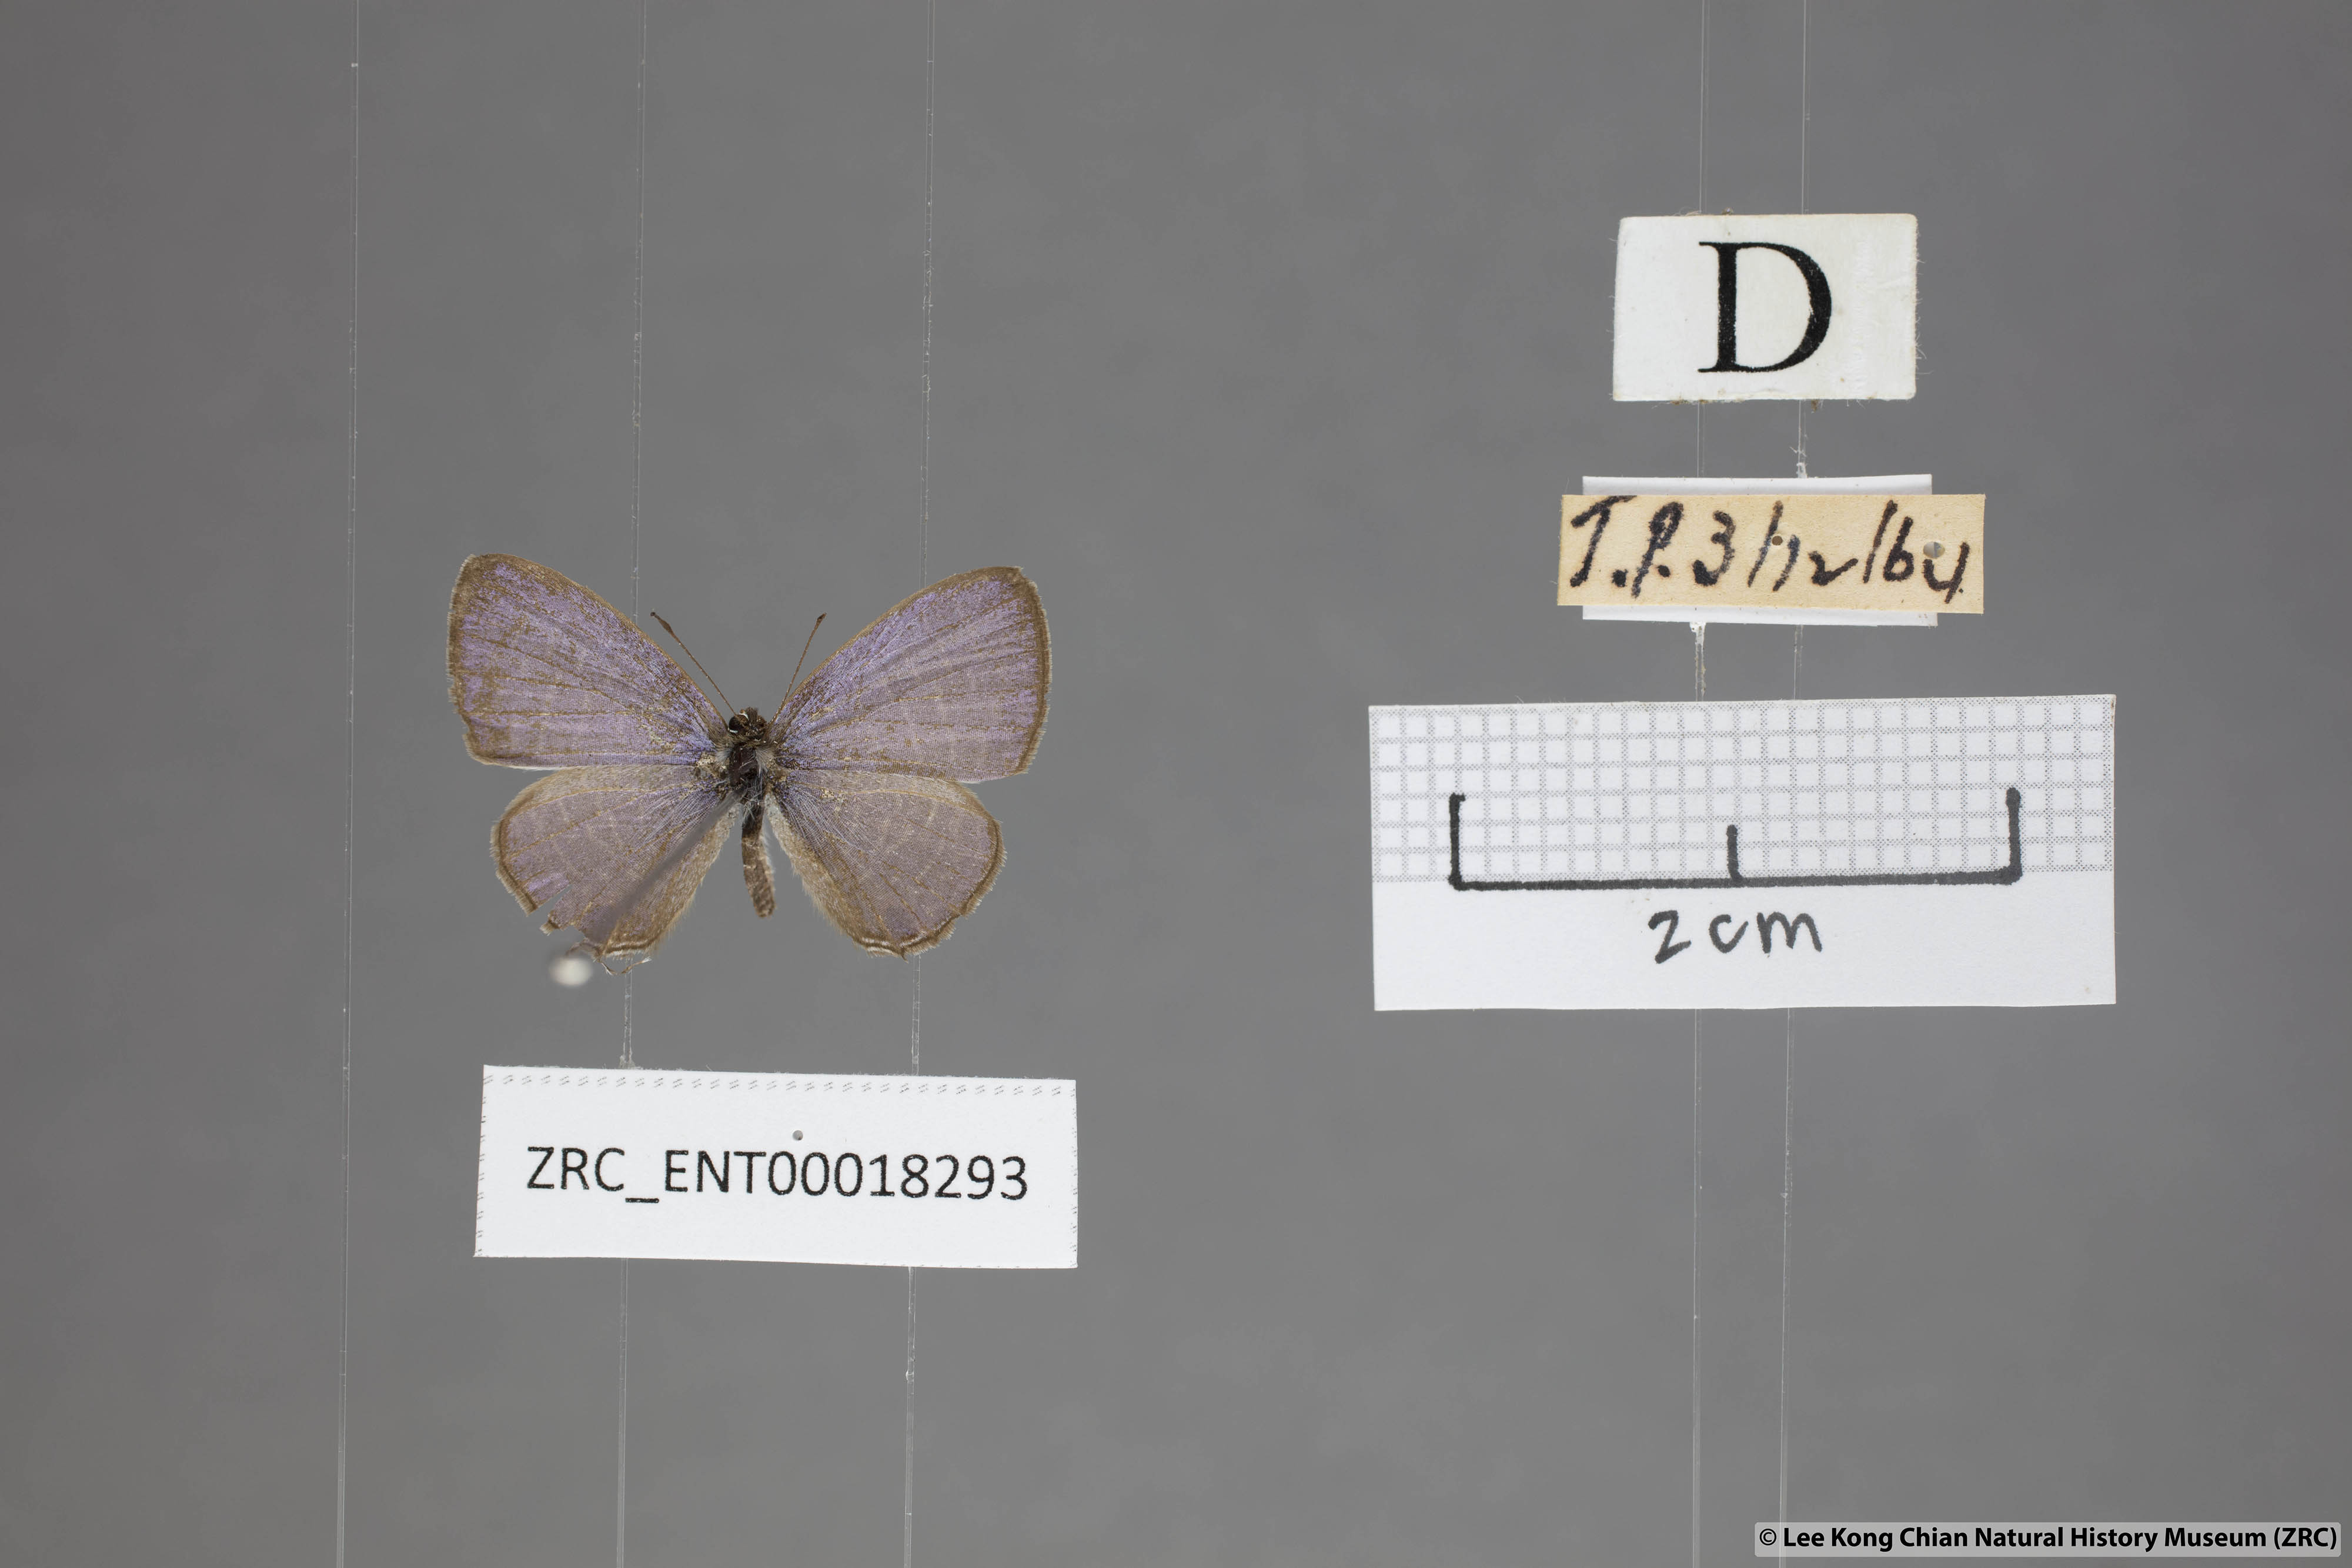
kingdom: Animalia
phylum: Arthropoda
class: Insecta
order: Lepidoptera
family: Lycaenidae
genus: Prosotas
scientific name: Prosotas aluta
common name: Barred lineblue
